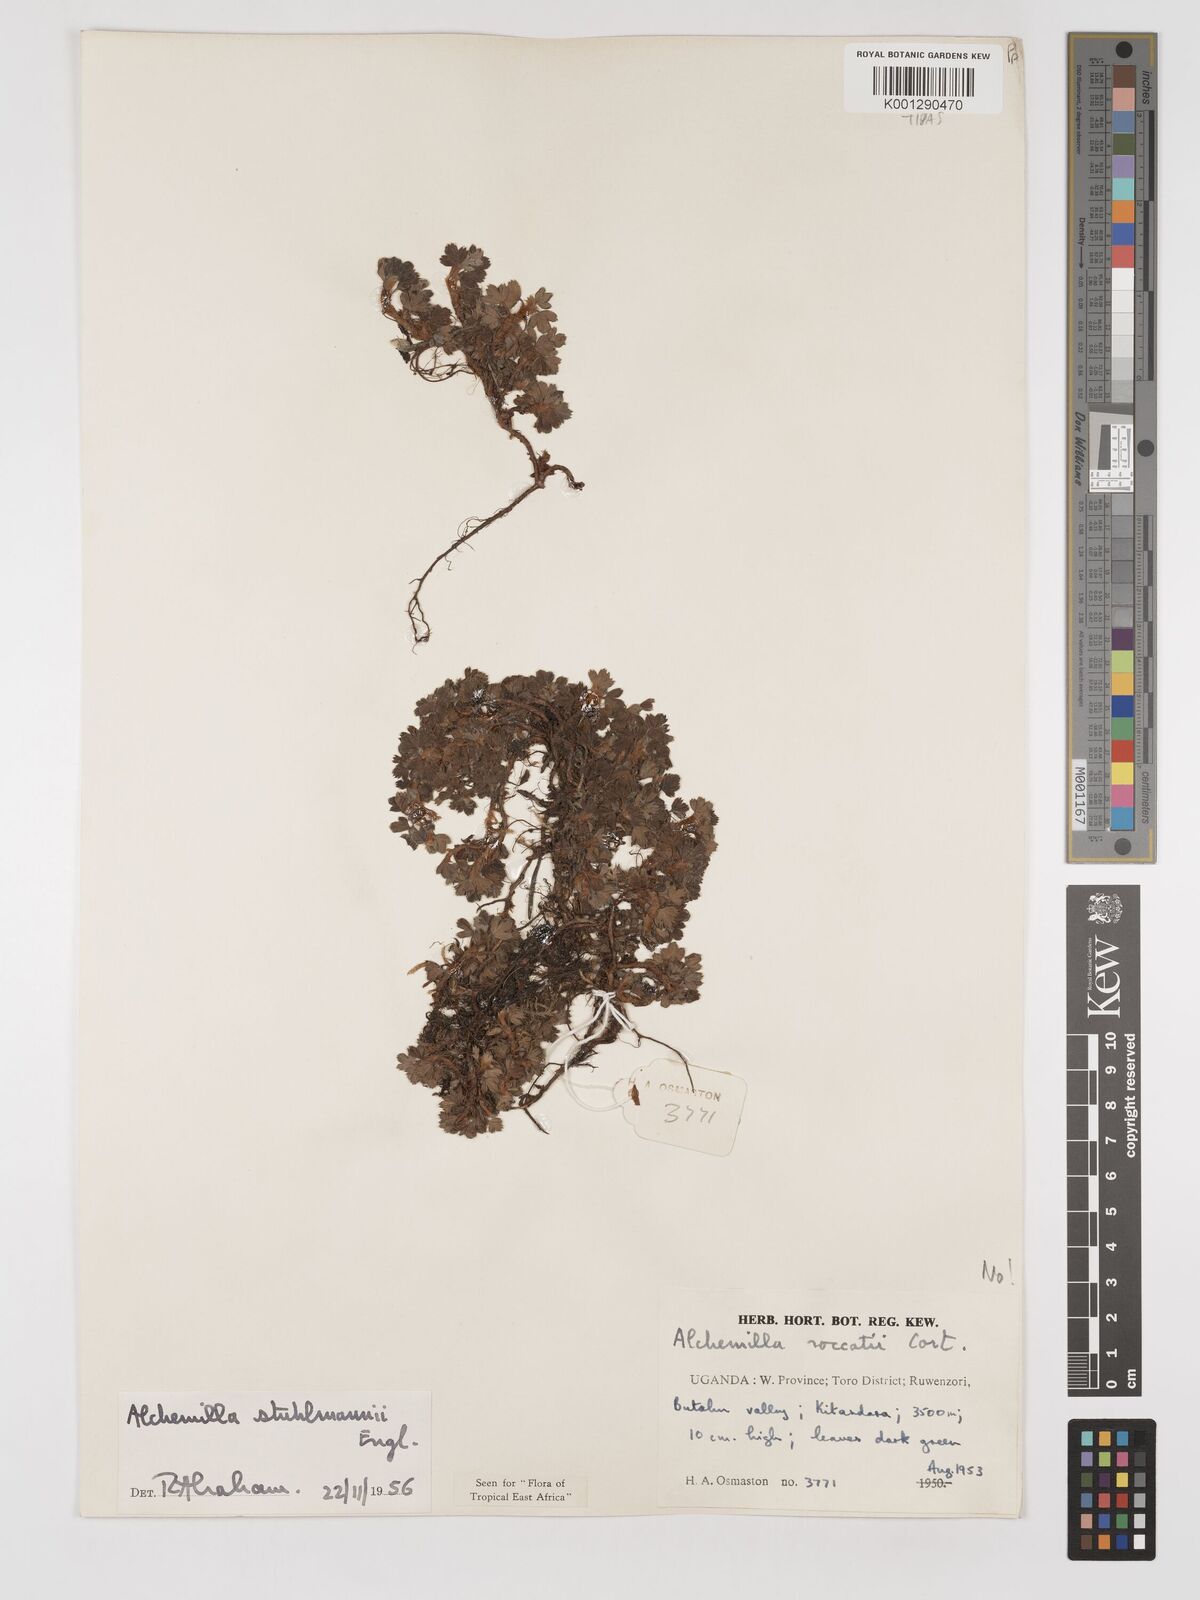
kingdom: Plantae
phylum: Tracheophyta
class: Magnoliopsida
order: Rosales
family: Rosaceae
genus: Alchemilla
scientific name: Alchemilla stuhlmannii
